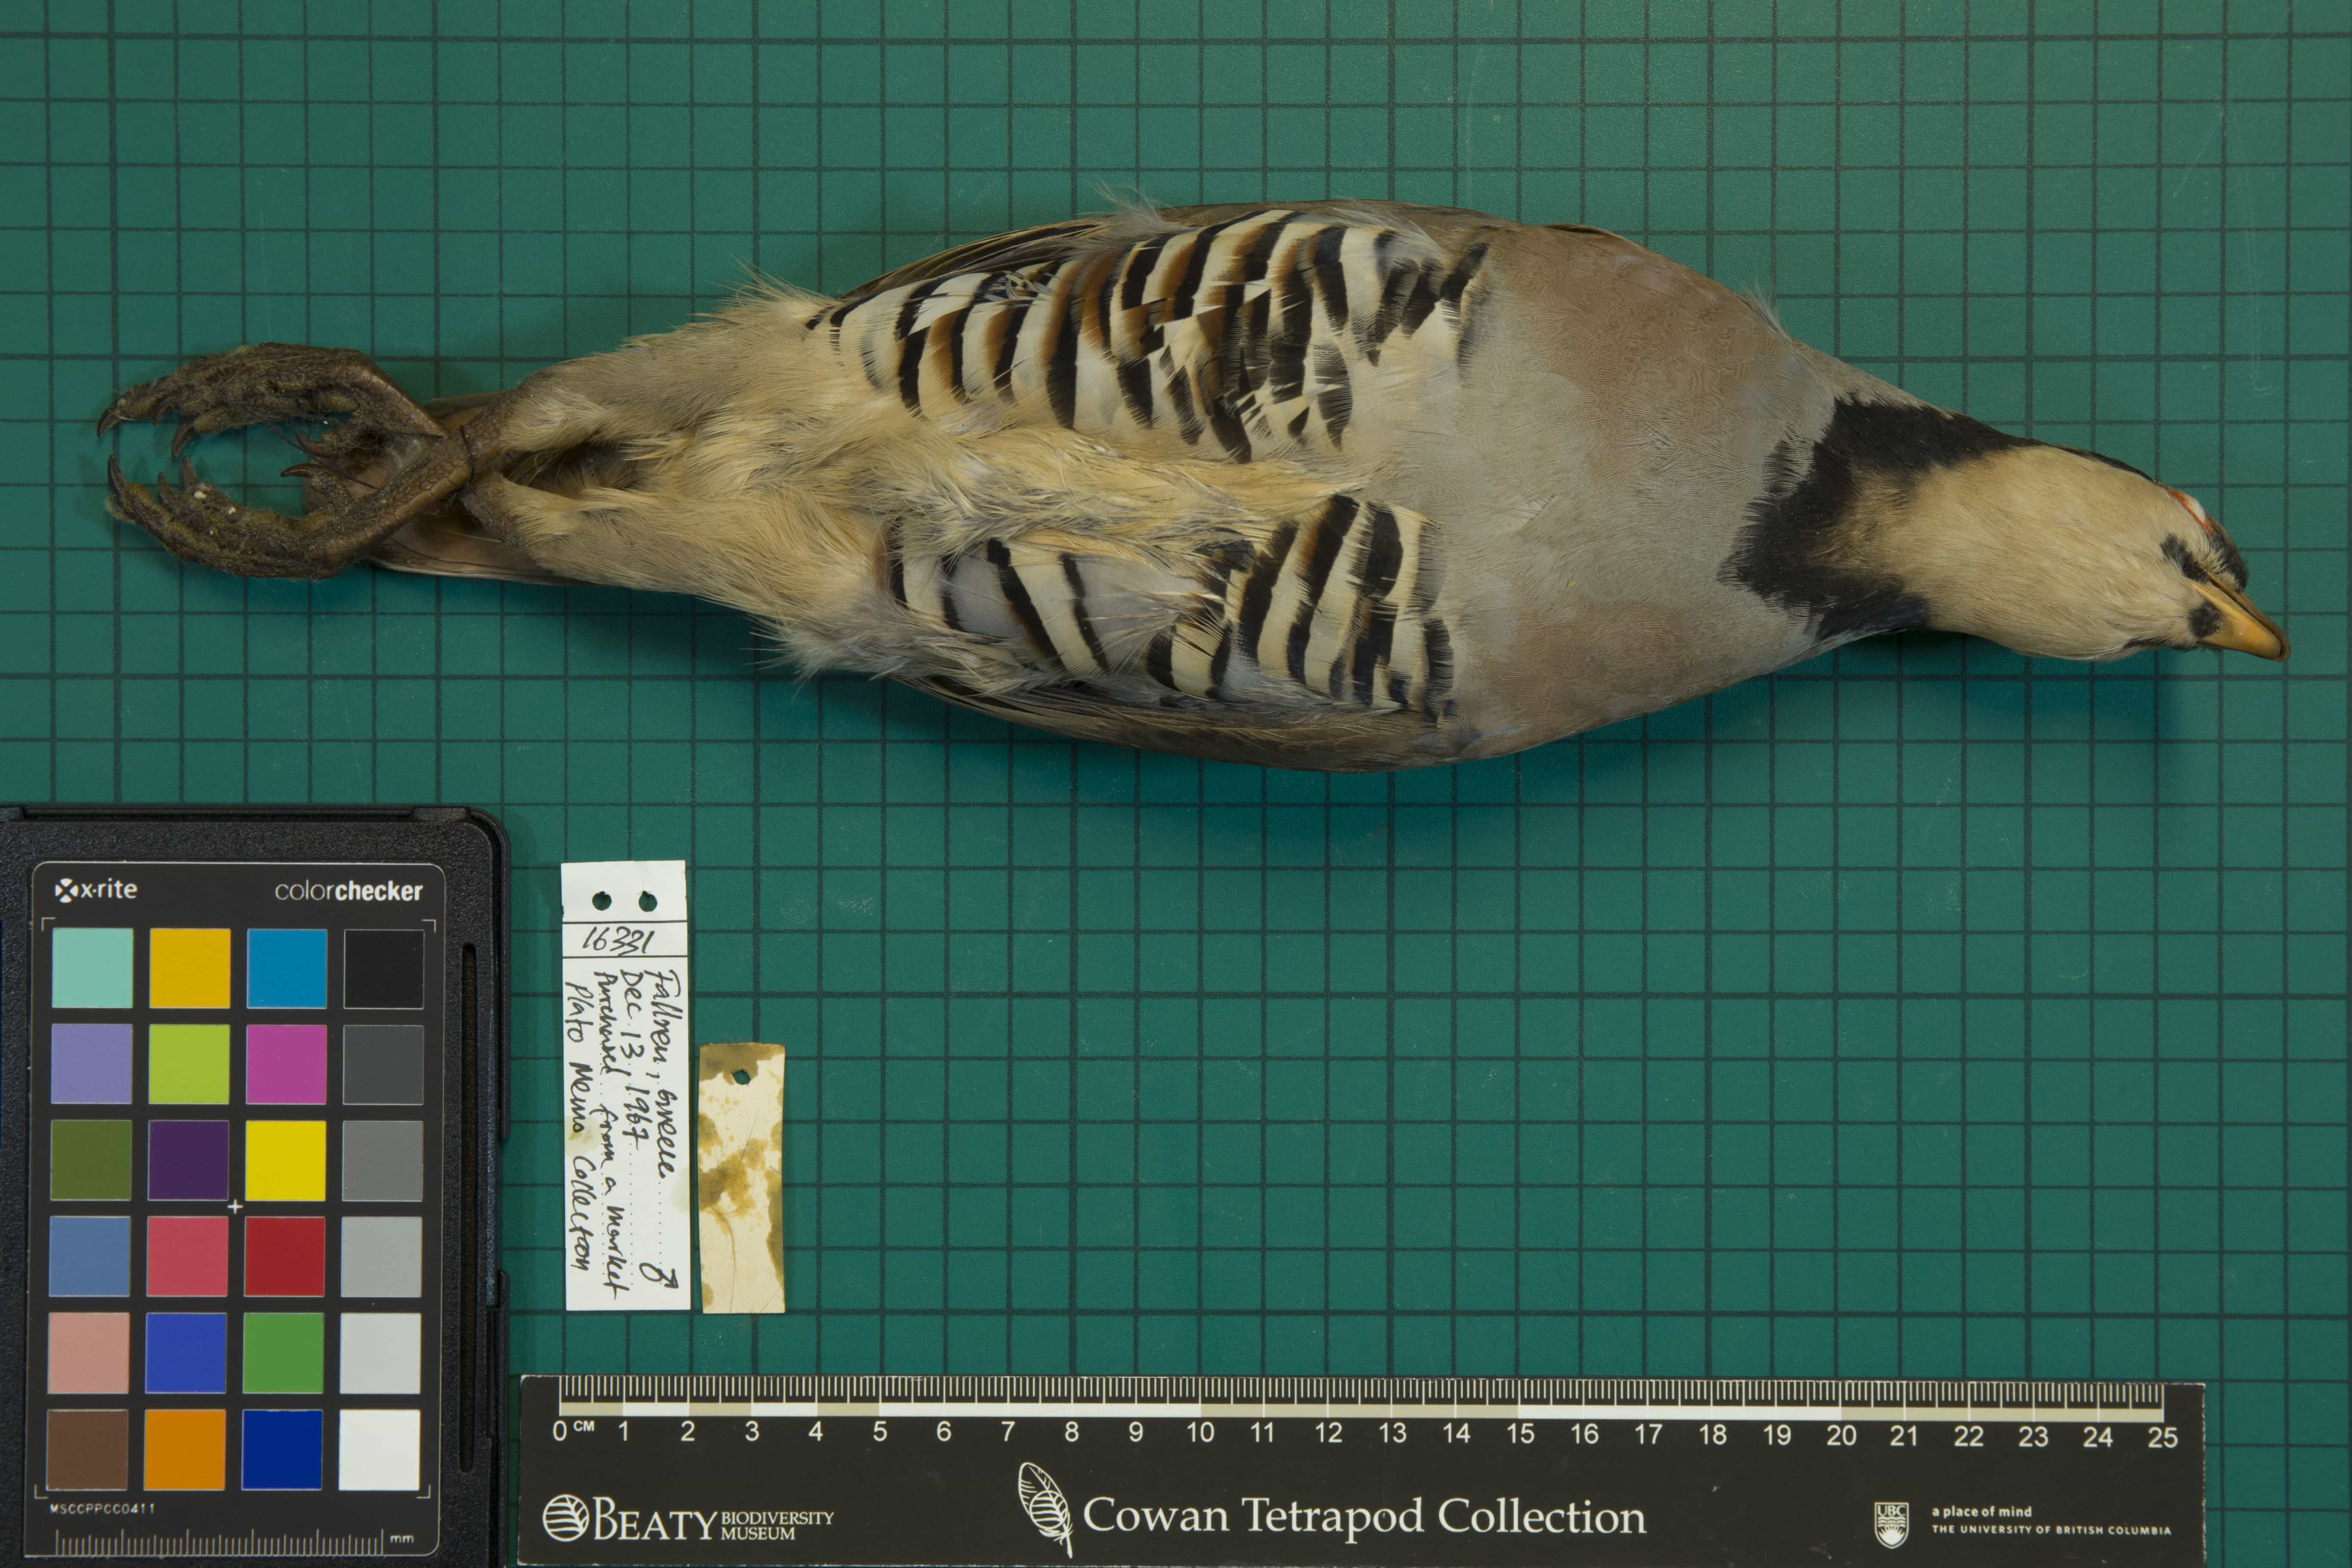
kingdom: Animalia
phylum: Chordata
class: Aves
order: Galliformes
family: Phasianidae
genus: Alectoris
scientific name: Alectoris graeca
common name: Rock partridge
